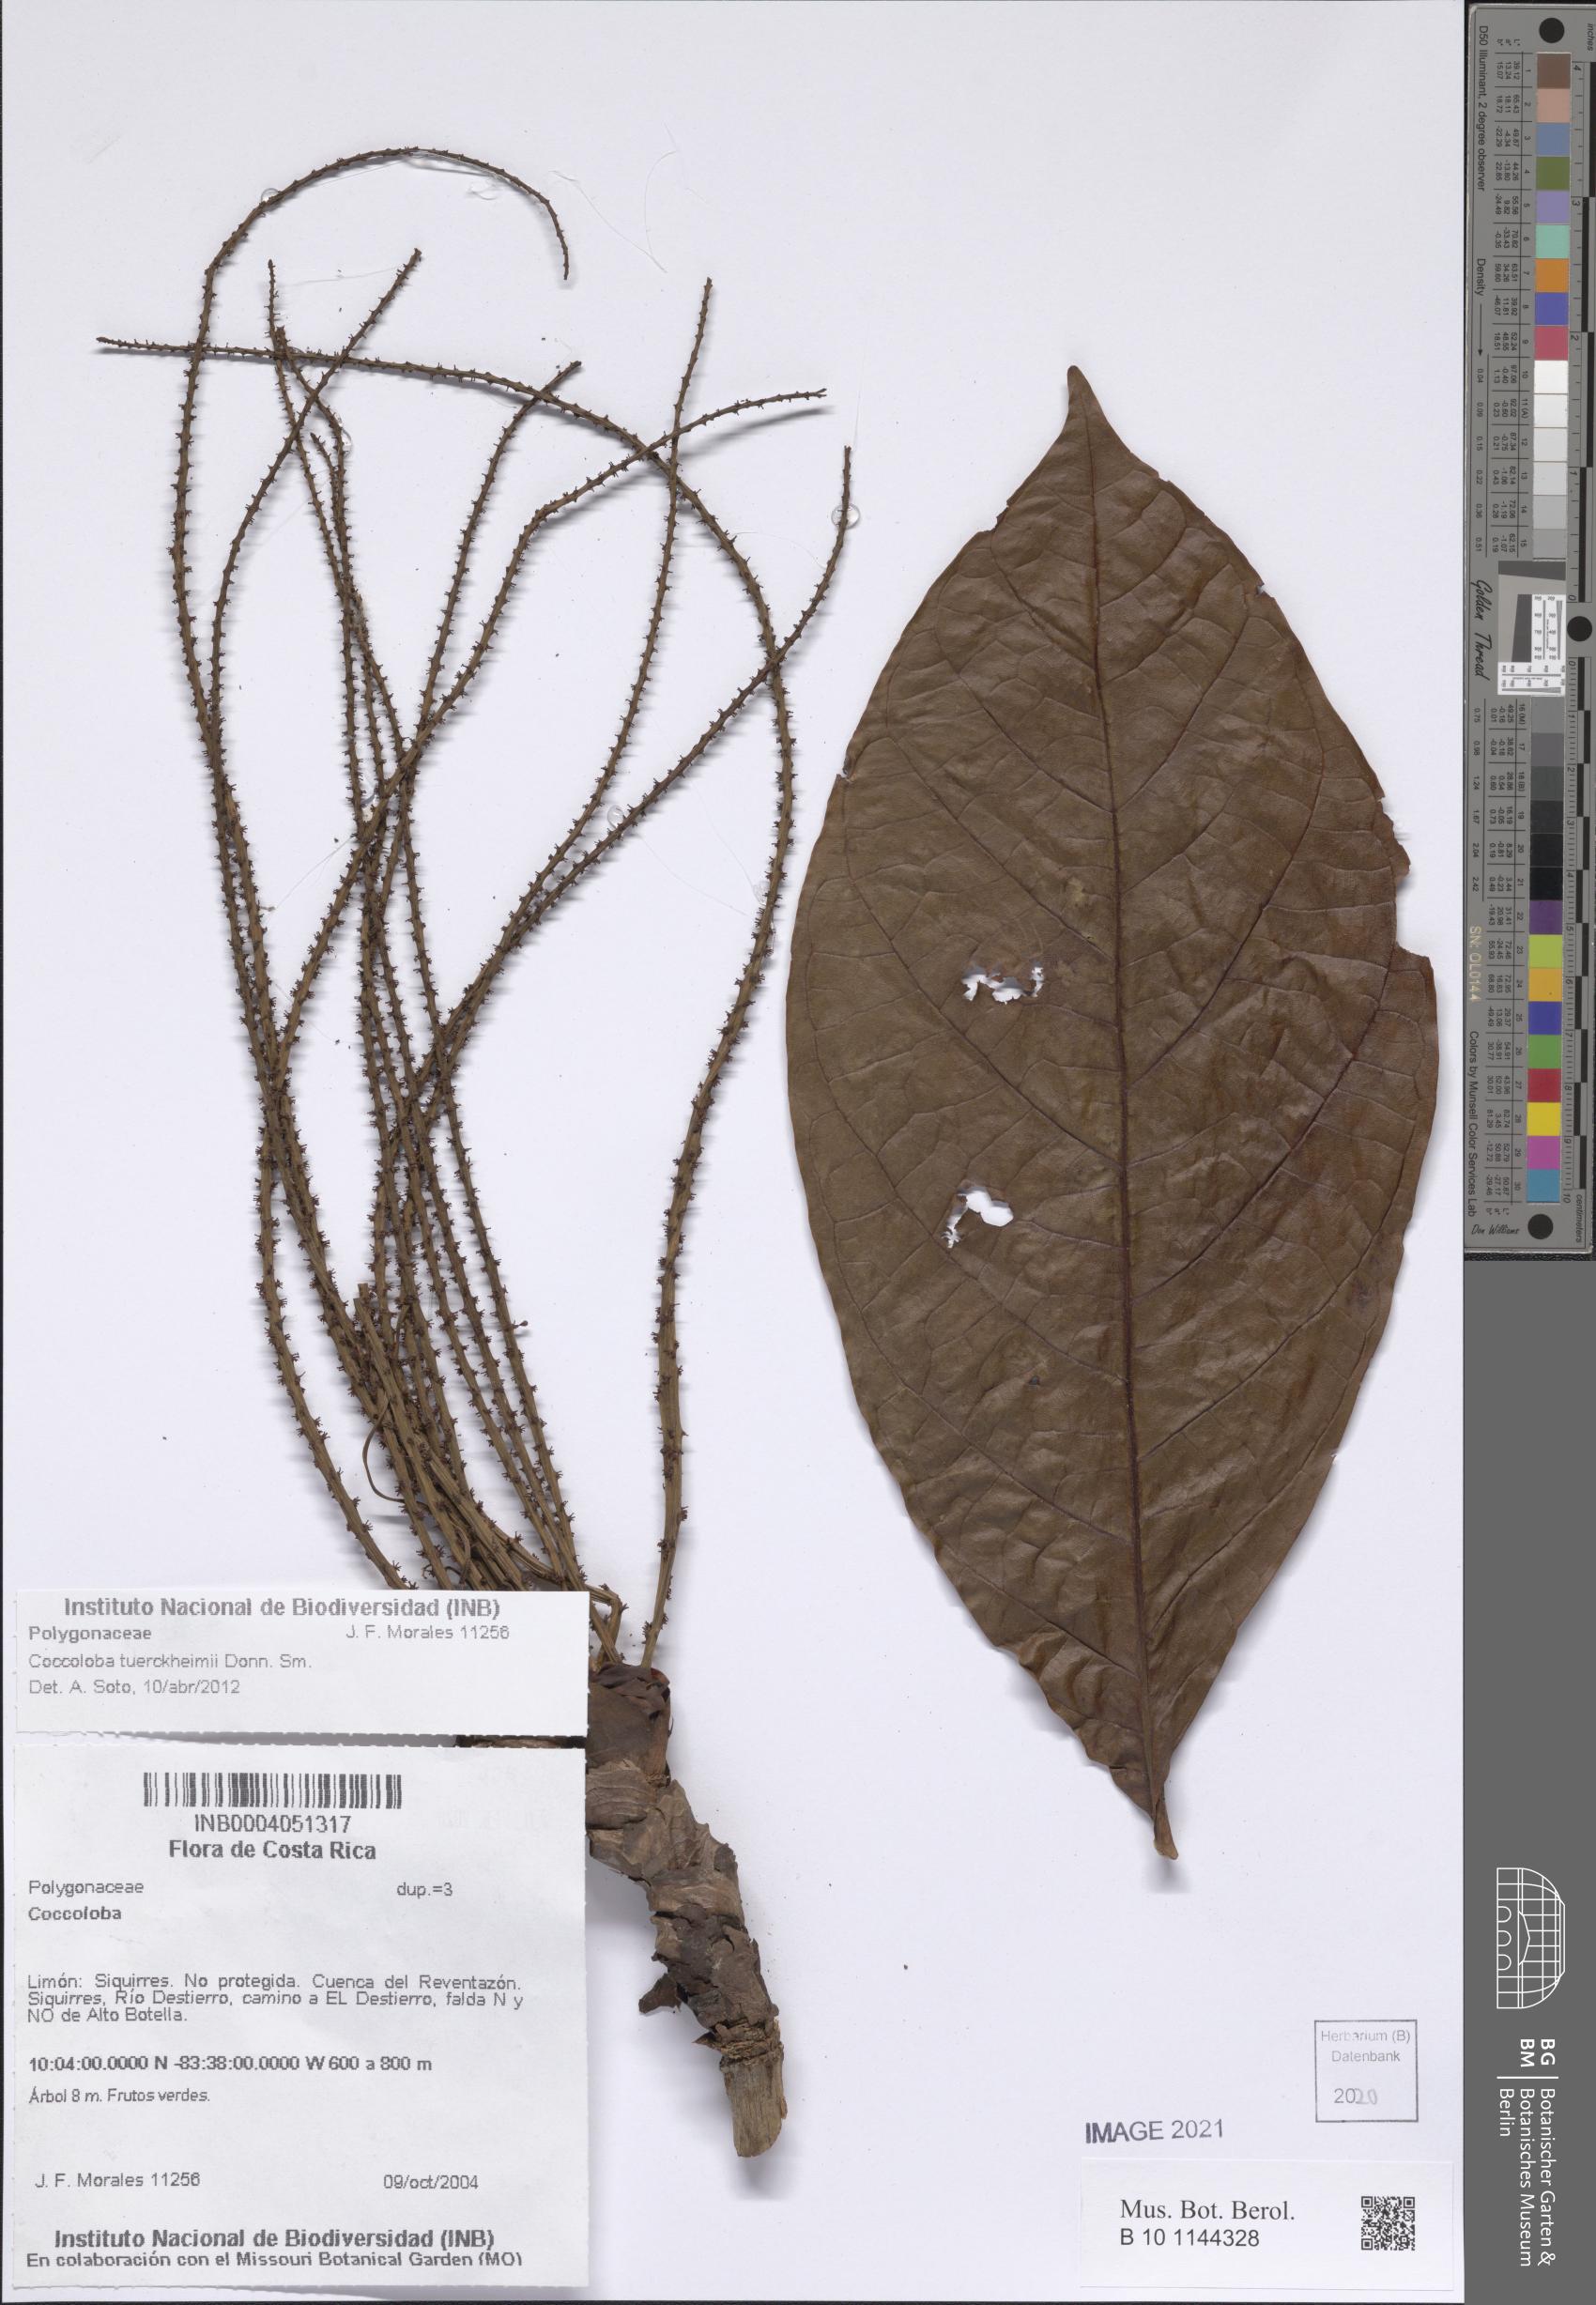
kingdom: Plantae
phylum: Tracheophyta
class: Magnoliopsida
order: Caryophyllales
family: Polygonaceae
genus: Coccoloba
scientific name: Coccoloba tuerckheimii
